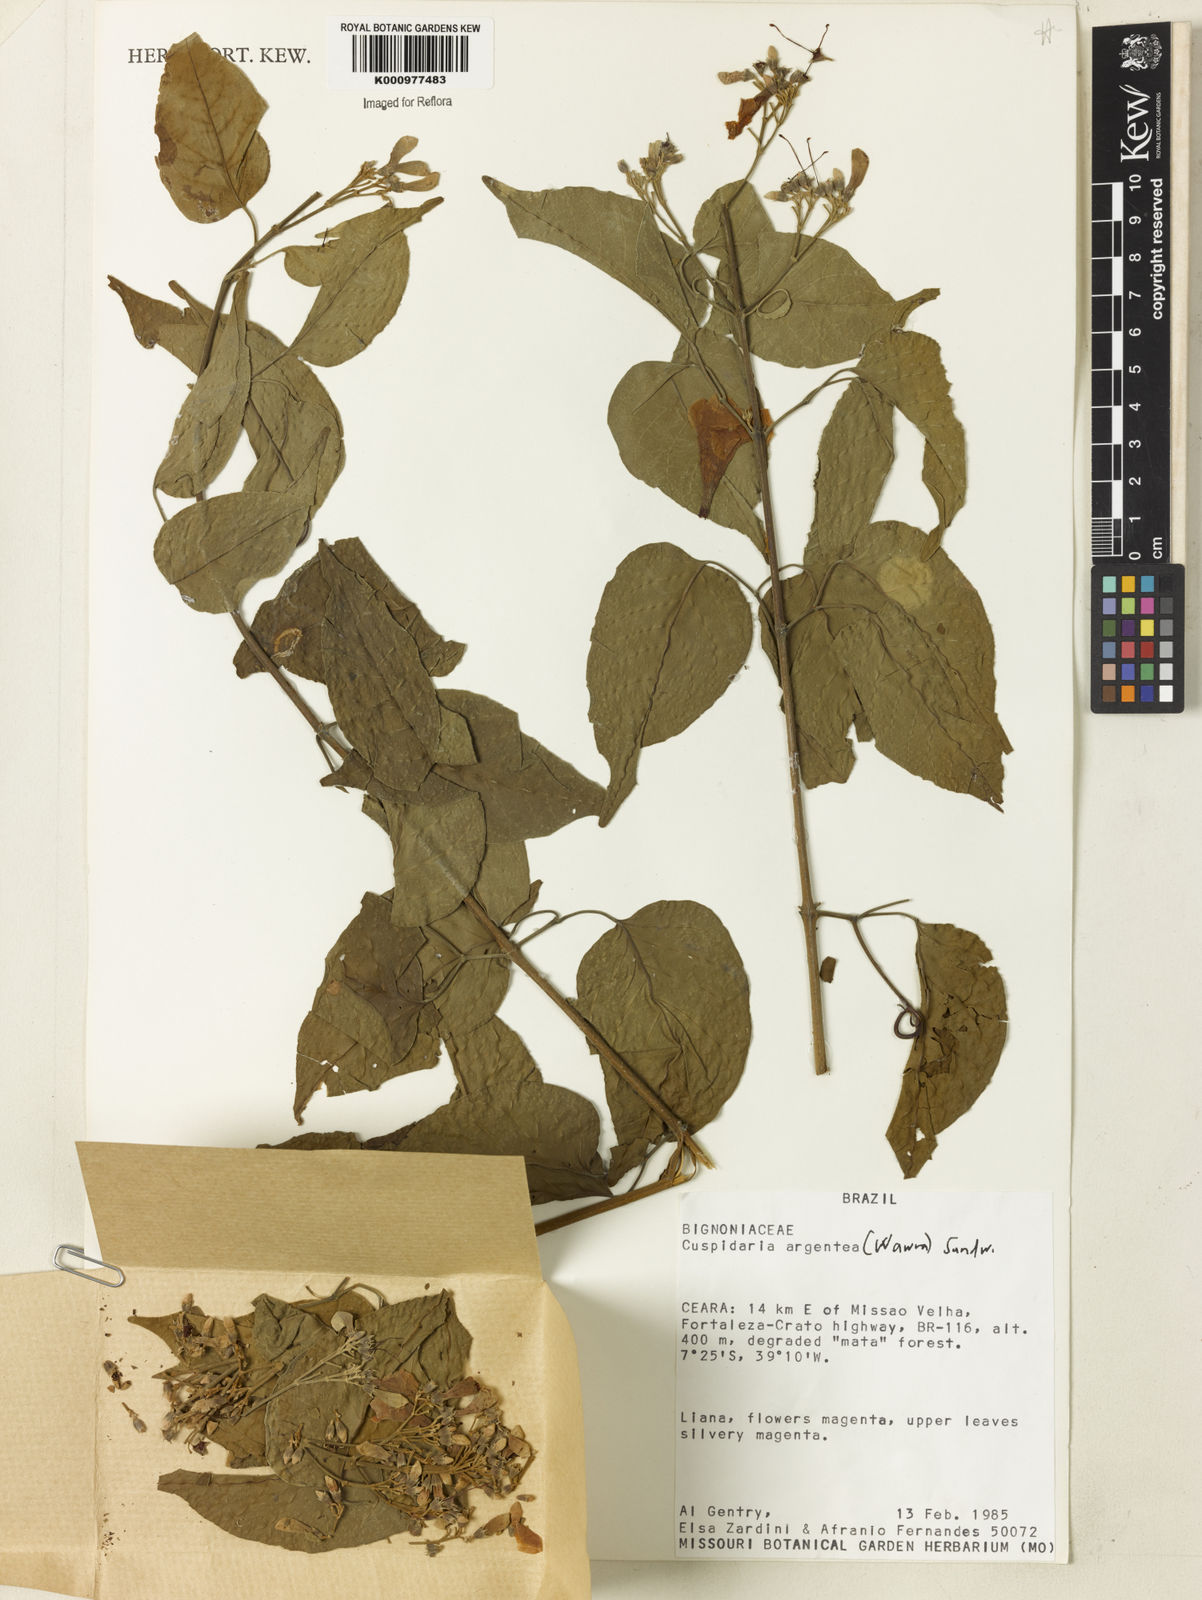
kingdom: Plantae
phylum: Tracheophyta
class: Magnoliopsida
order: Lamiales
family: Bignoniaceae
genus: Cuspidaria
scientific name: Cuspidaria argentea
